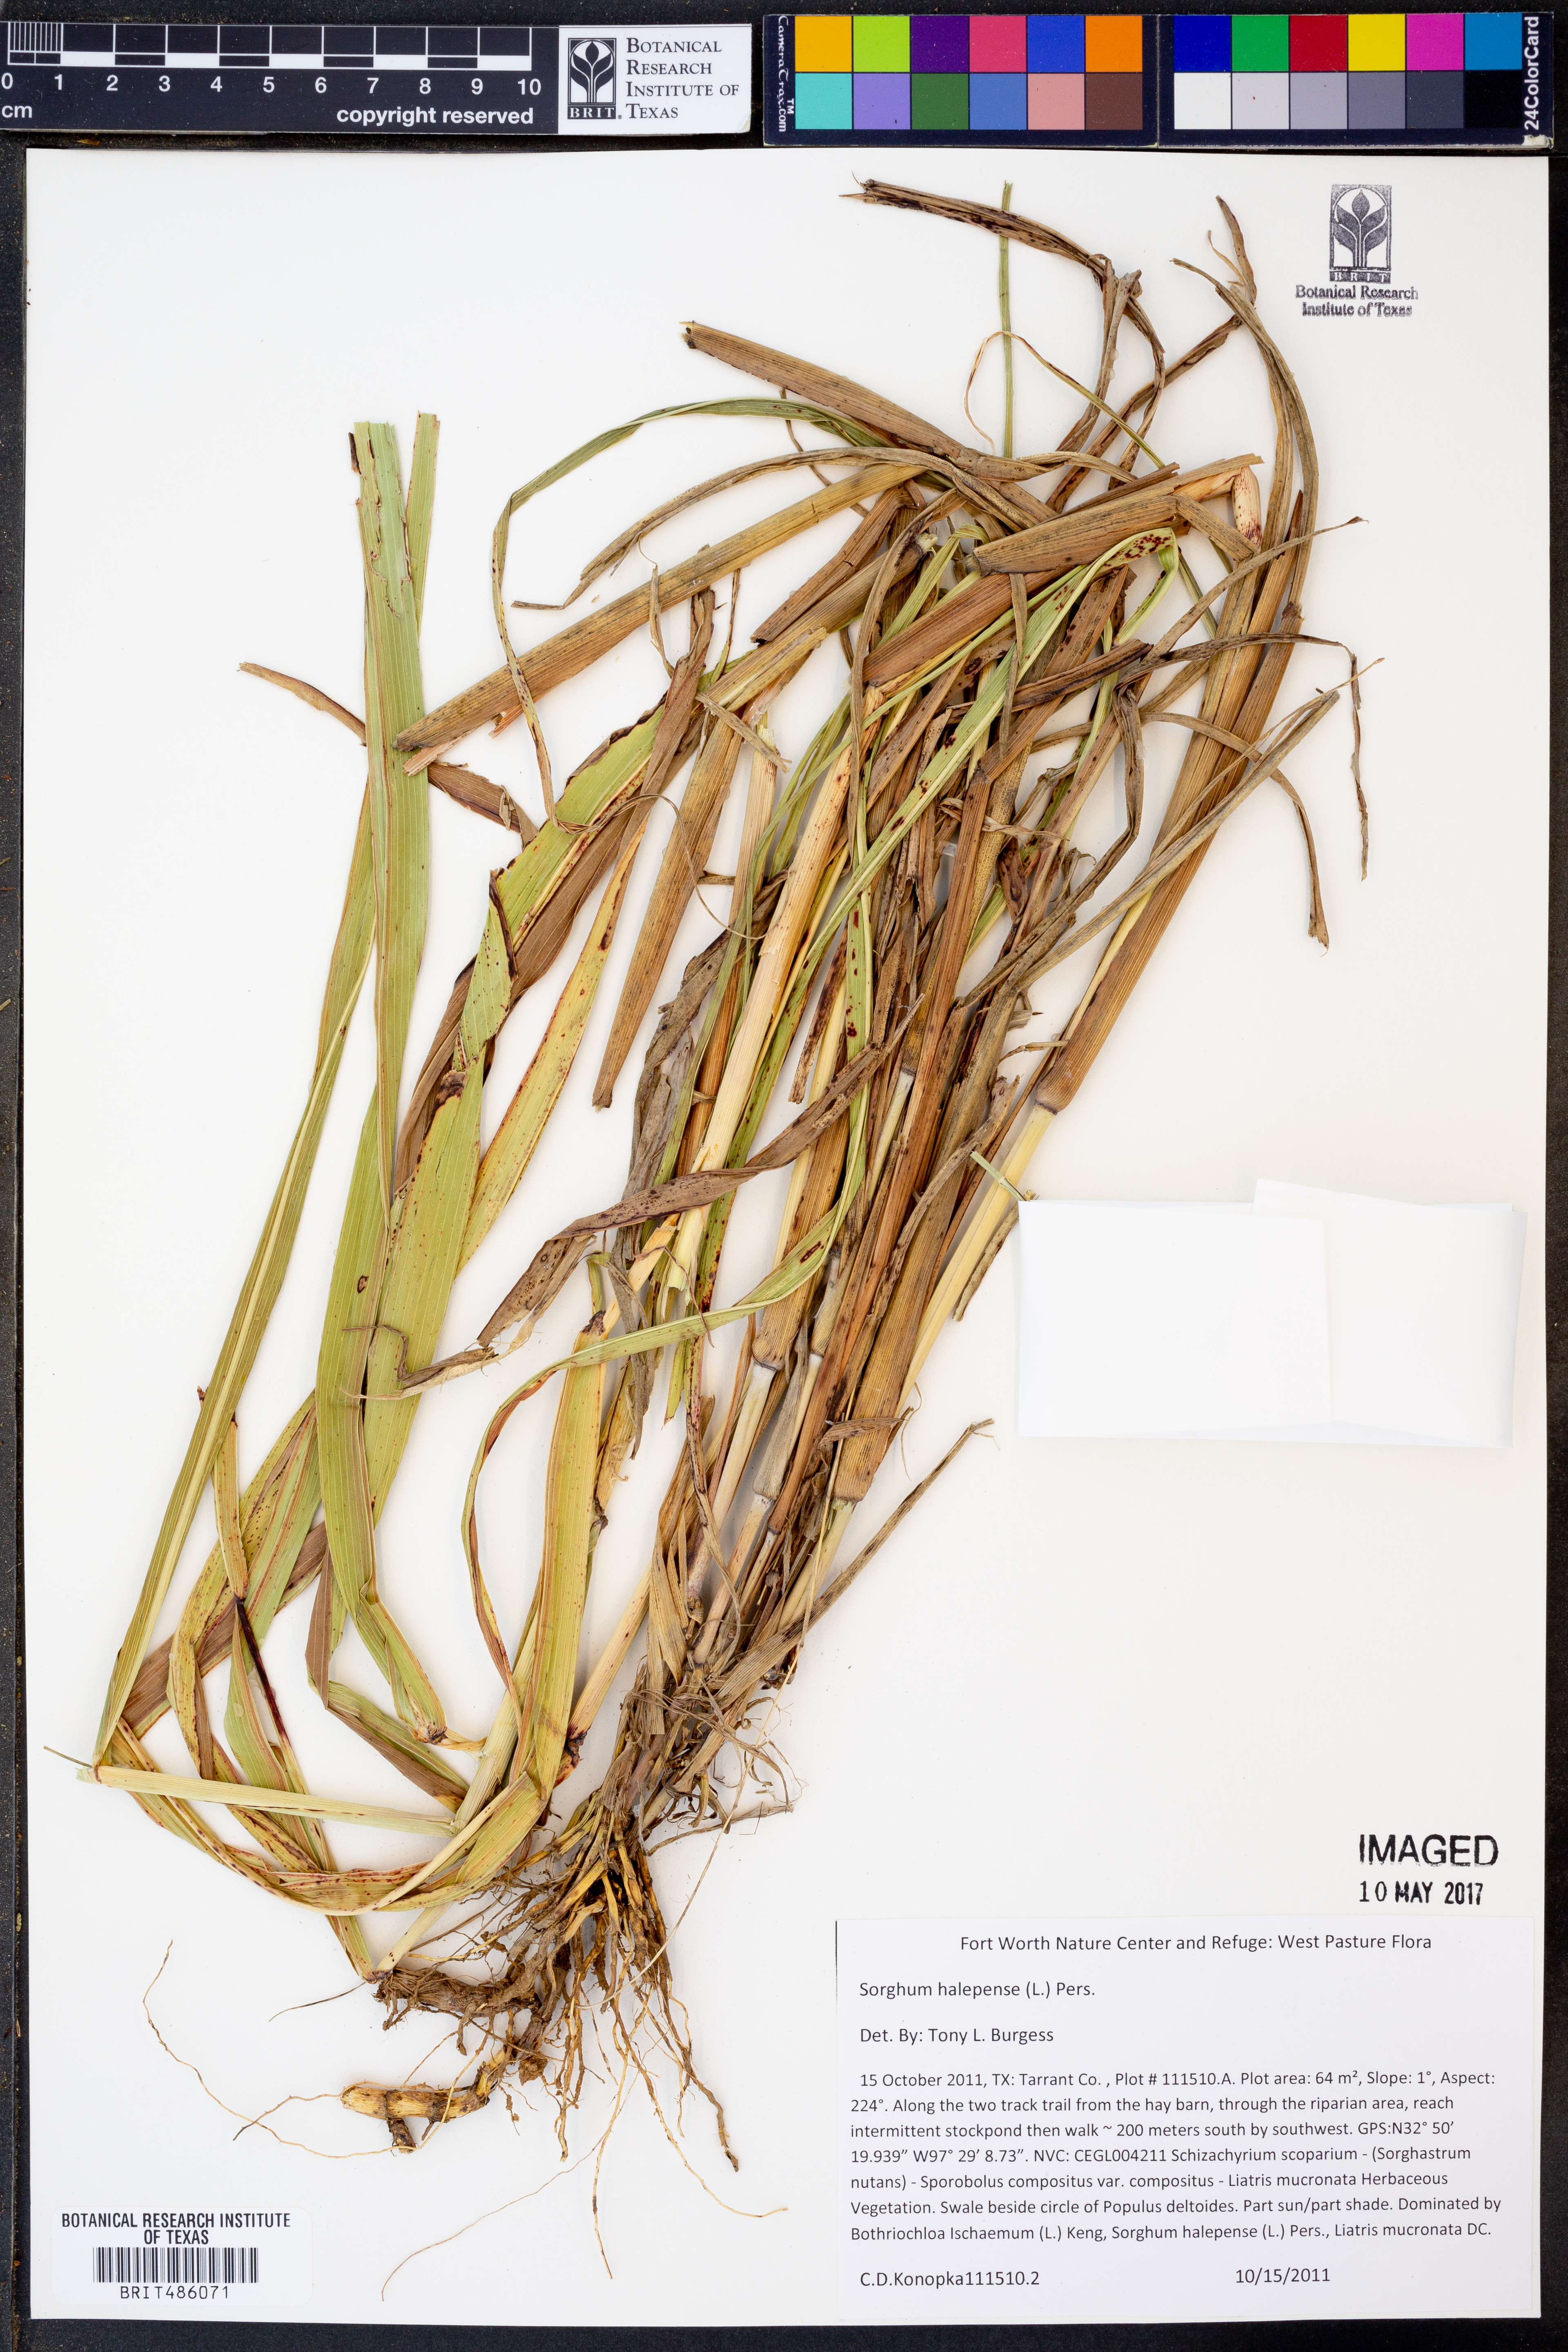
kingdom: Plantae
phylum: Tracheophyta
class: Liliopsida
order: Poales
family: Poaceae
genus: Sorghum
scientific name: Sorghum halepense
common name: Johnson-grass
